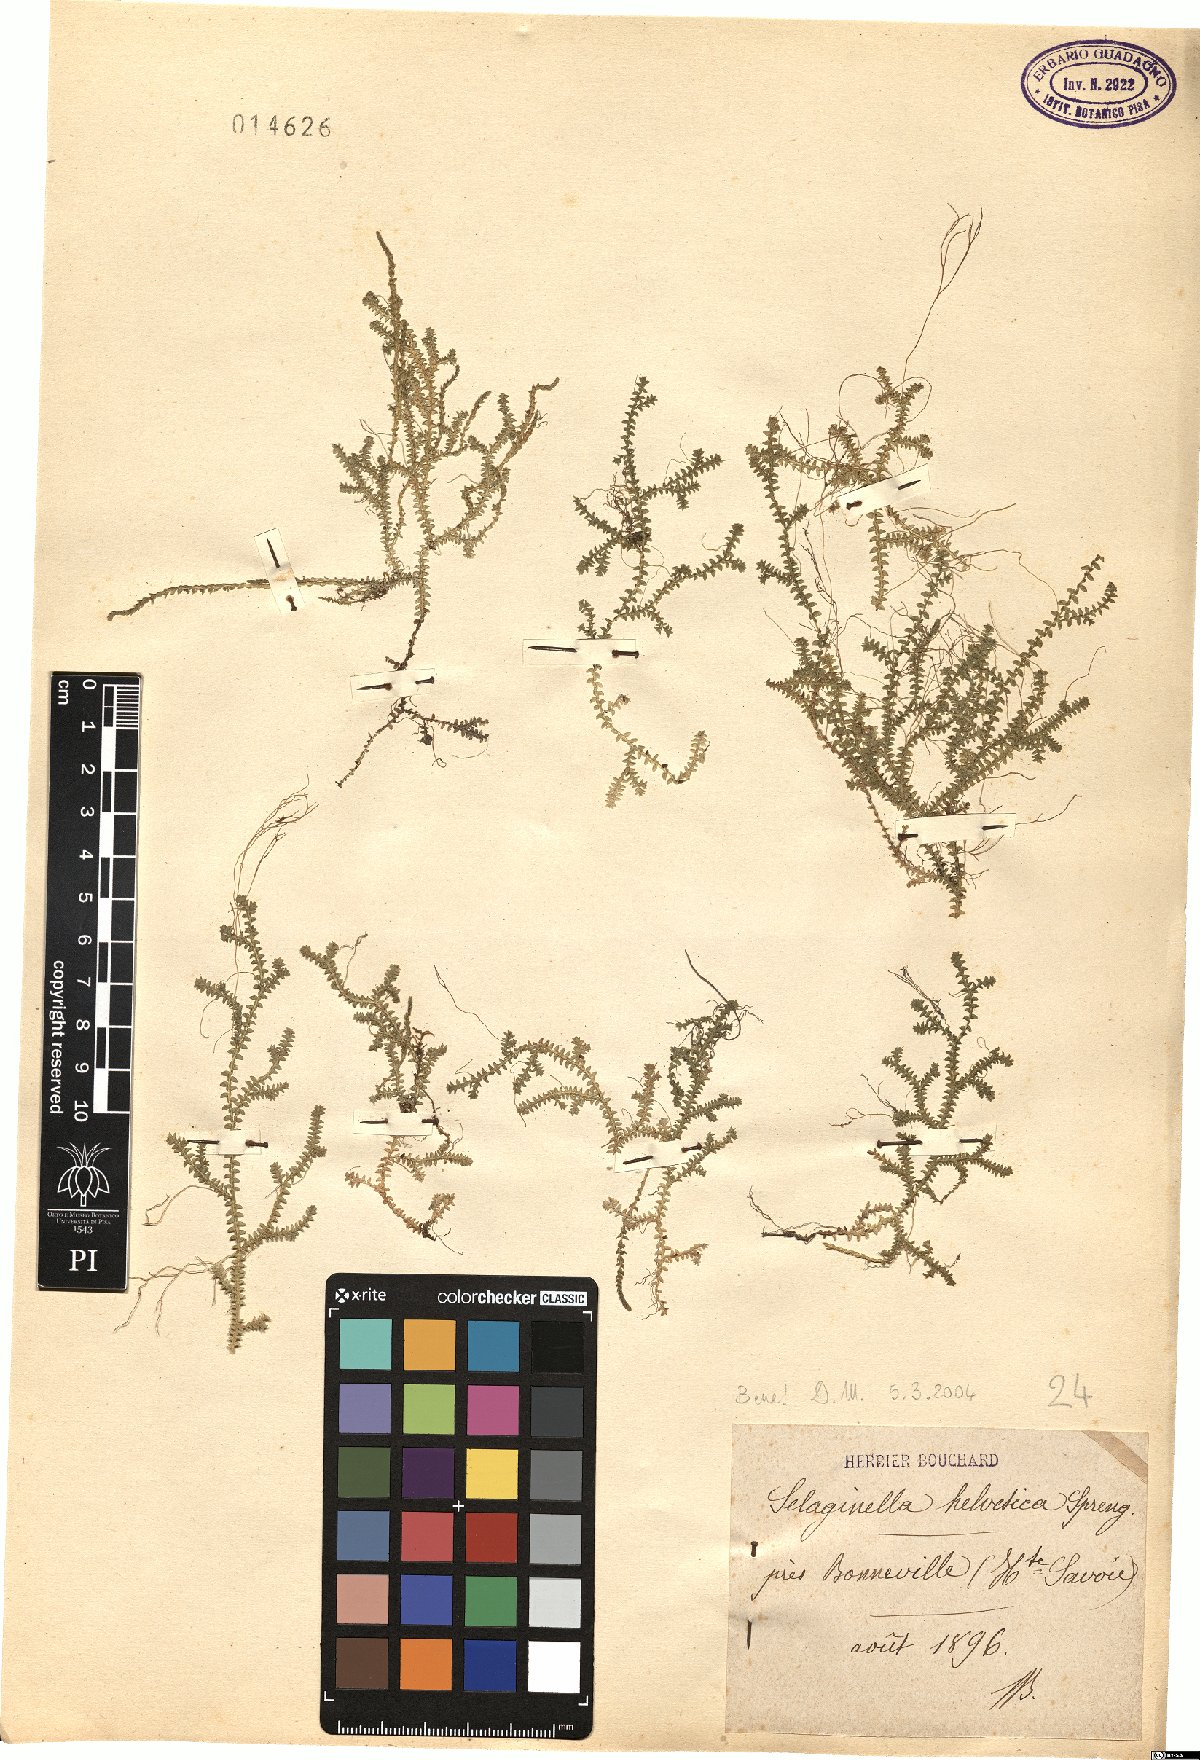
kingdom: Plantae
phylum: Tracheophyta
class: Lycopodiopsida
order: Selaginellales
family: Selaginellaceae
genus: Selaginella
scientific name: Selaginella helvetica
